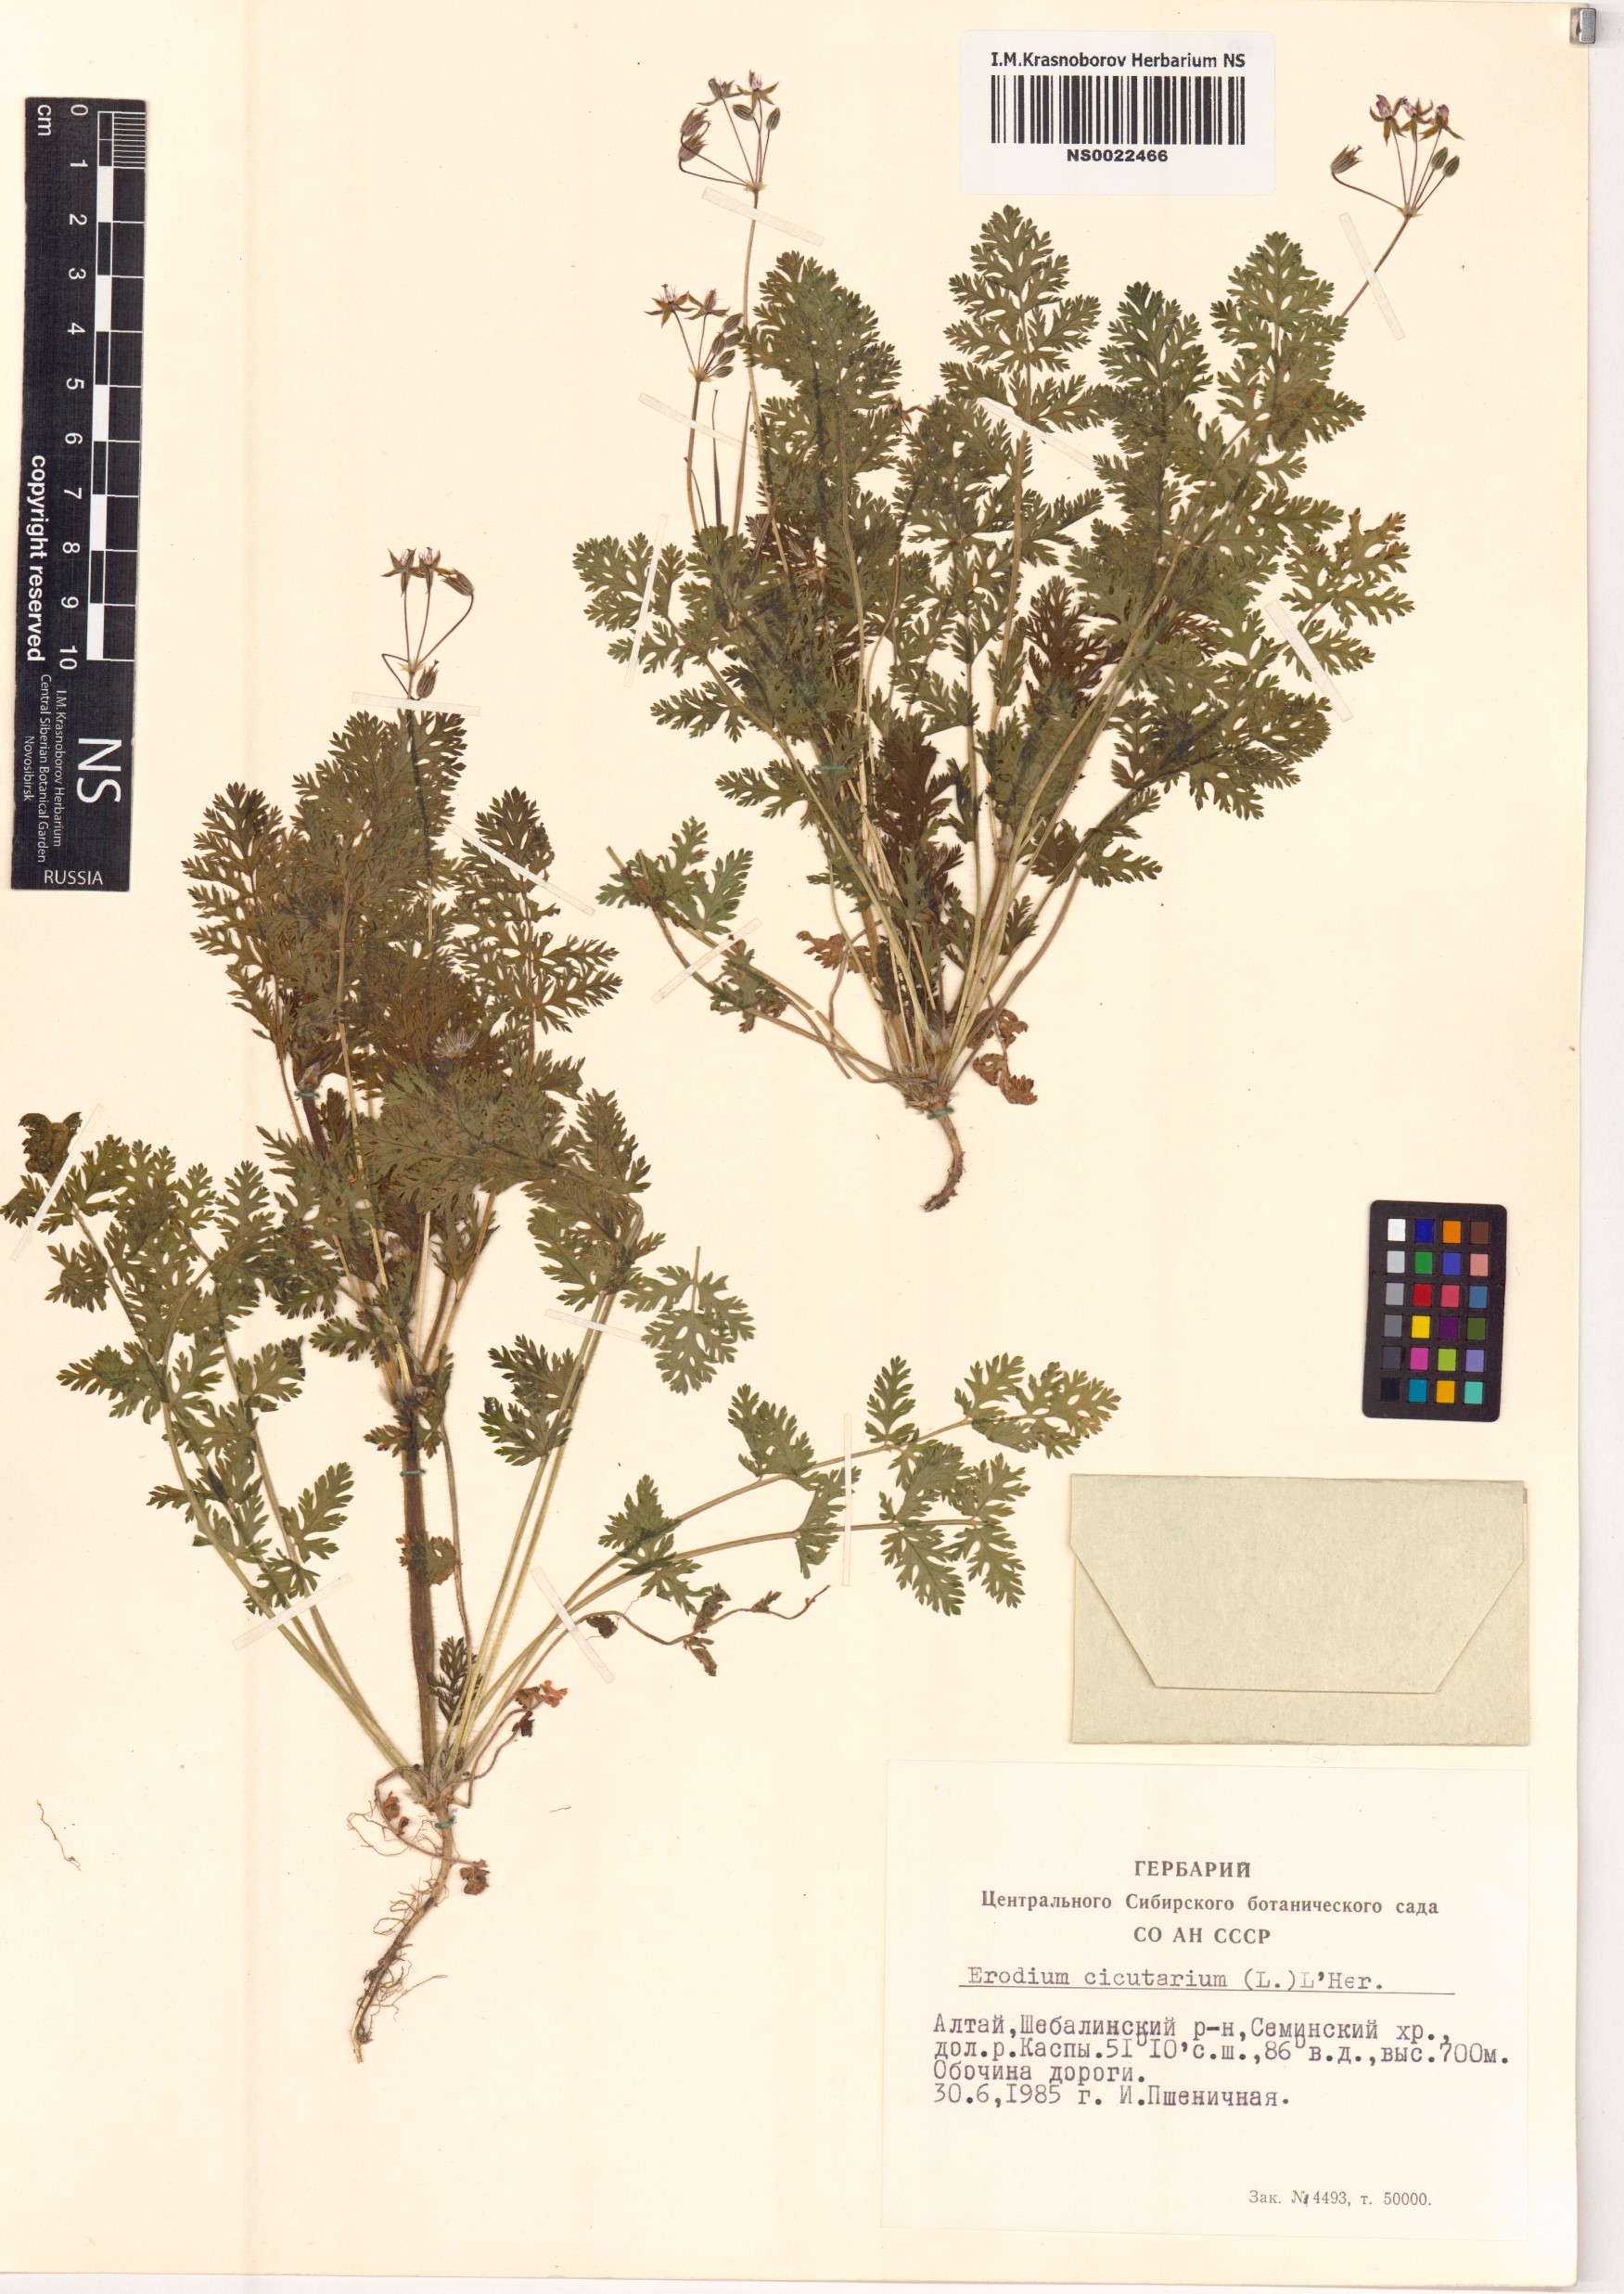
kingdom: Plantae
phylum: Tracheophyta
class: Magnoliopsida
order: Geraniales
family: Geraniaceae
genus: Erodium
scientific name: Erodium cicutarium
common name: Common stork's-bill
